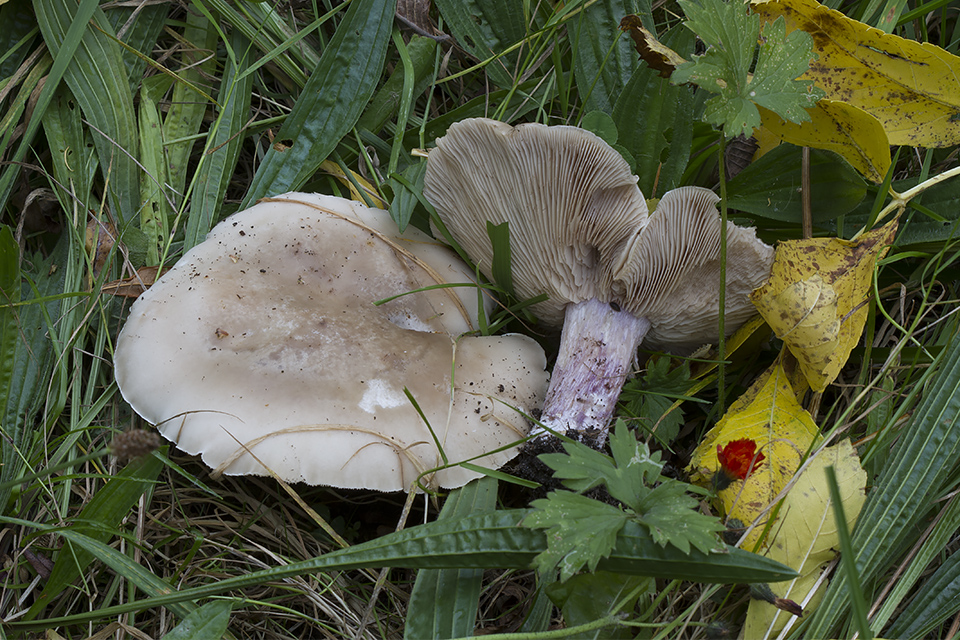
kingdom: Fungi
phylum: Basidiomycota
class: Agaricomycetes
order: Agaricales
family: Tricholomataceae
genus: Lepista
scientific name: Lepista personata
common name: bleg hekseringshat
